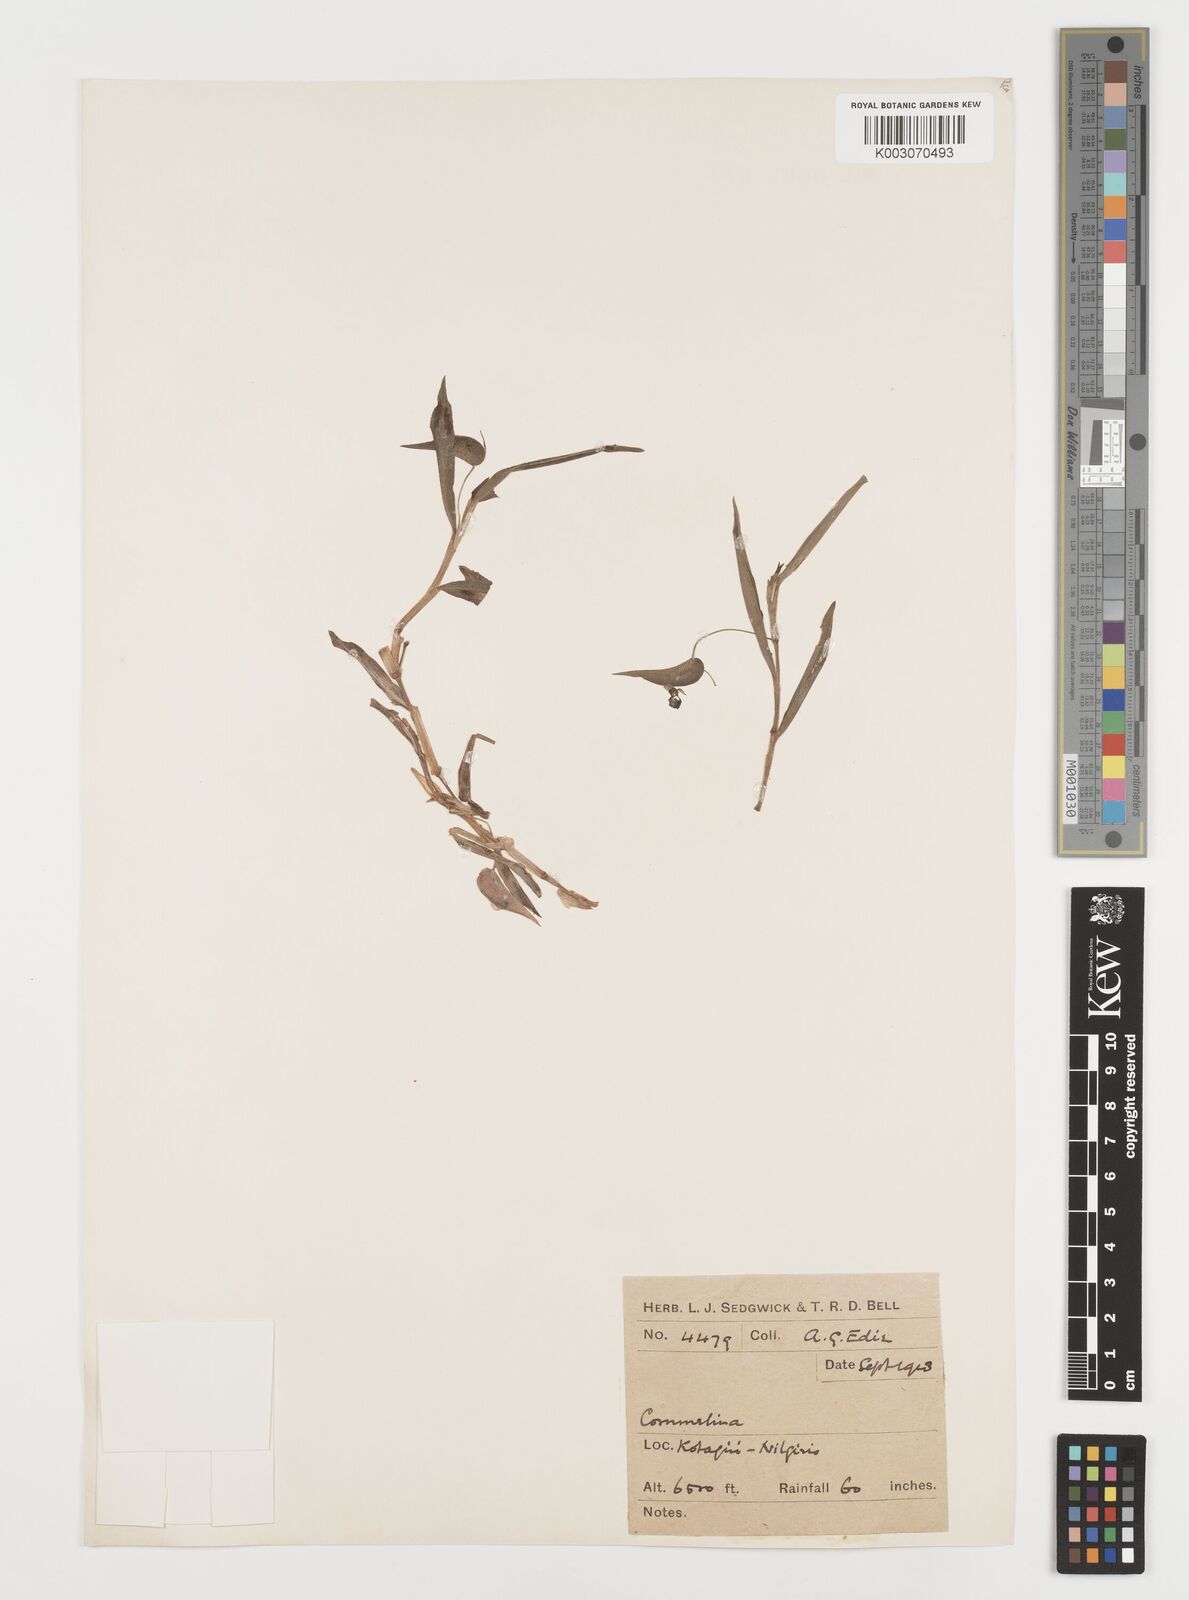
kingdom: Plantae
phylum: Tracheophyta
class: Liliopsida
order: Commelinales
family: Commelinaceae
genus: Commelina
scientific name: Commelina
